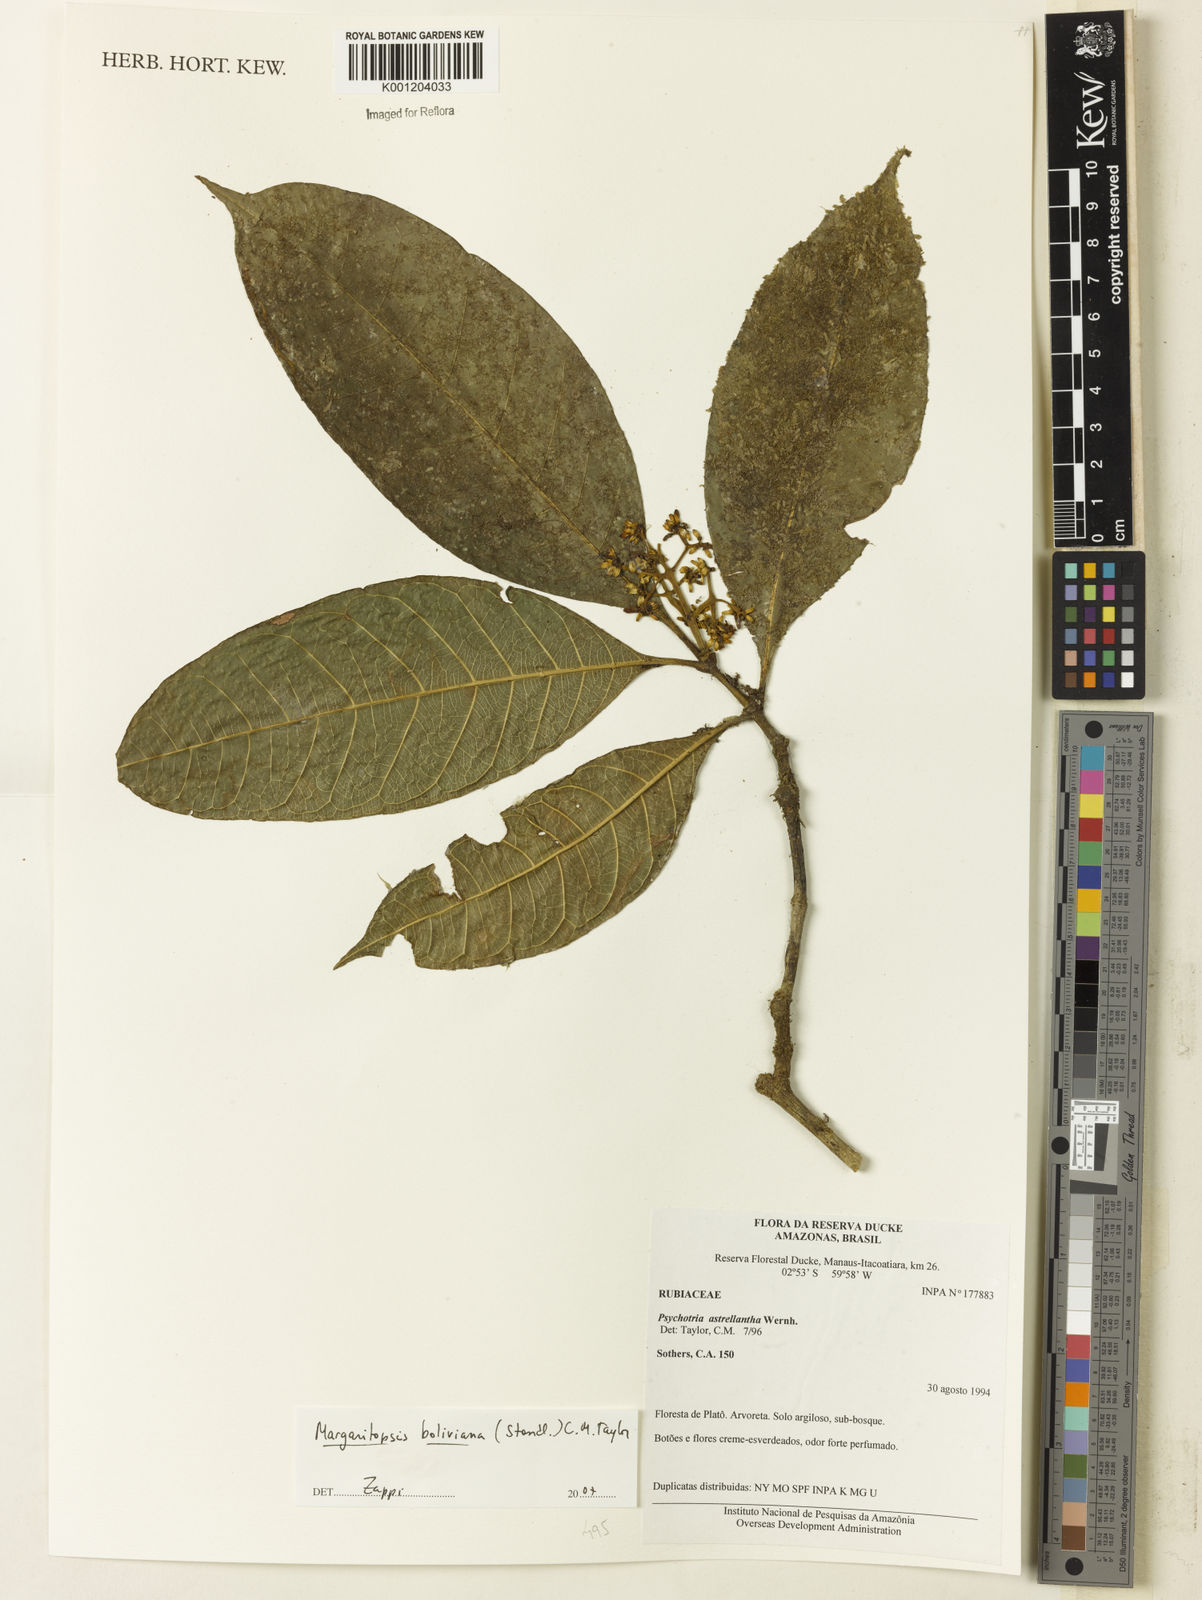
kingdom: Plantae
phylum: Tracheophyta
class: Magnoliopsida
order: Gentianales
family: Rubiaceae
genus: Eumachia
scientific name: Eumachia boliviana
